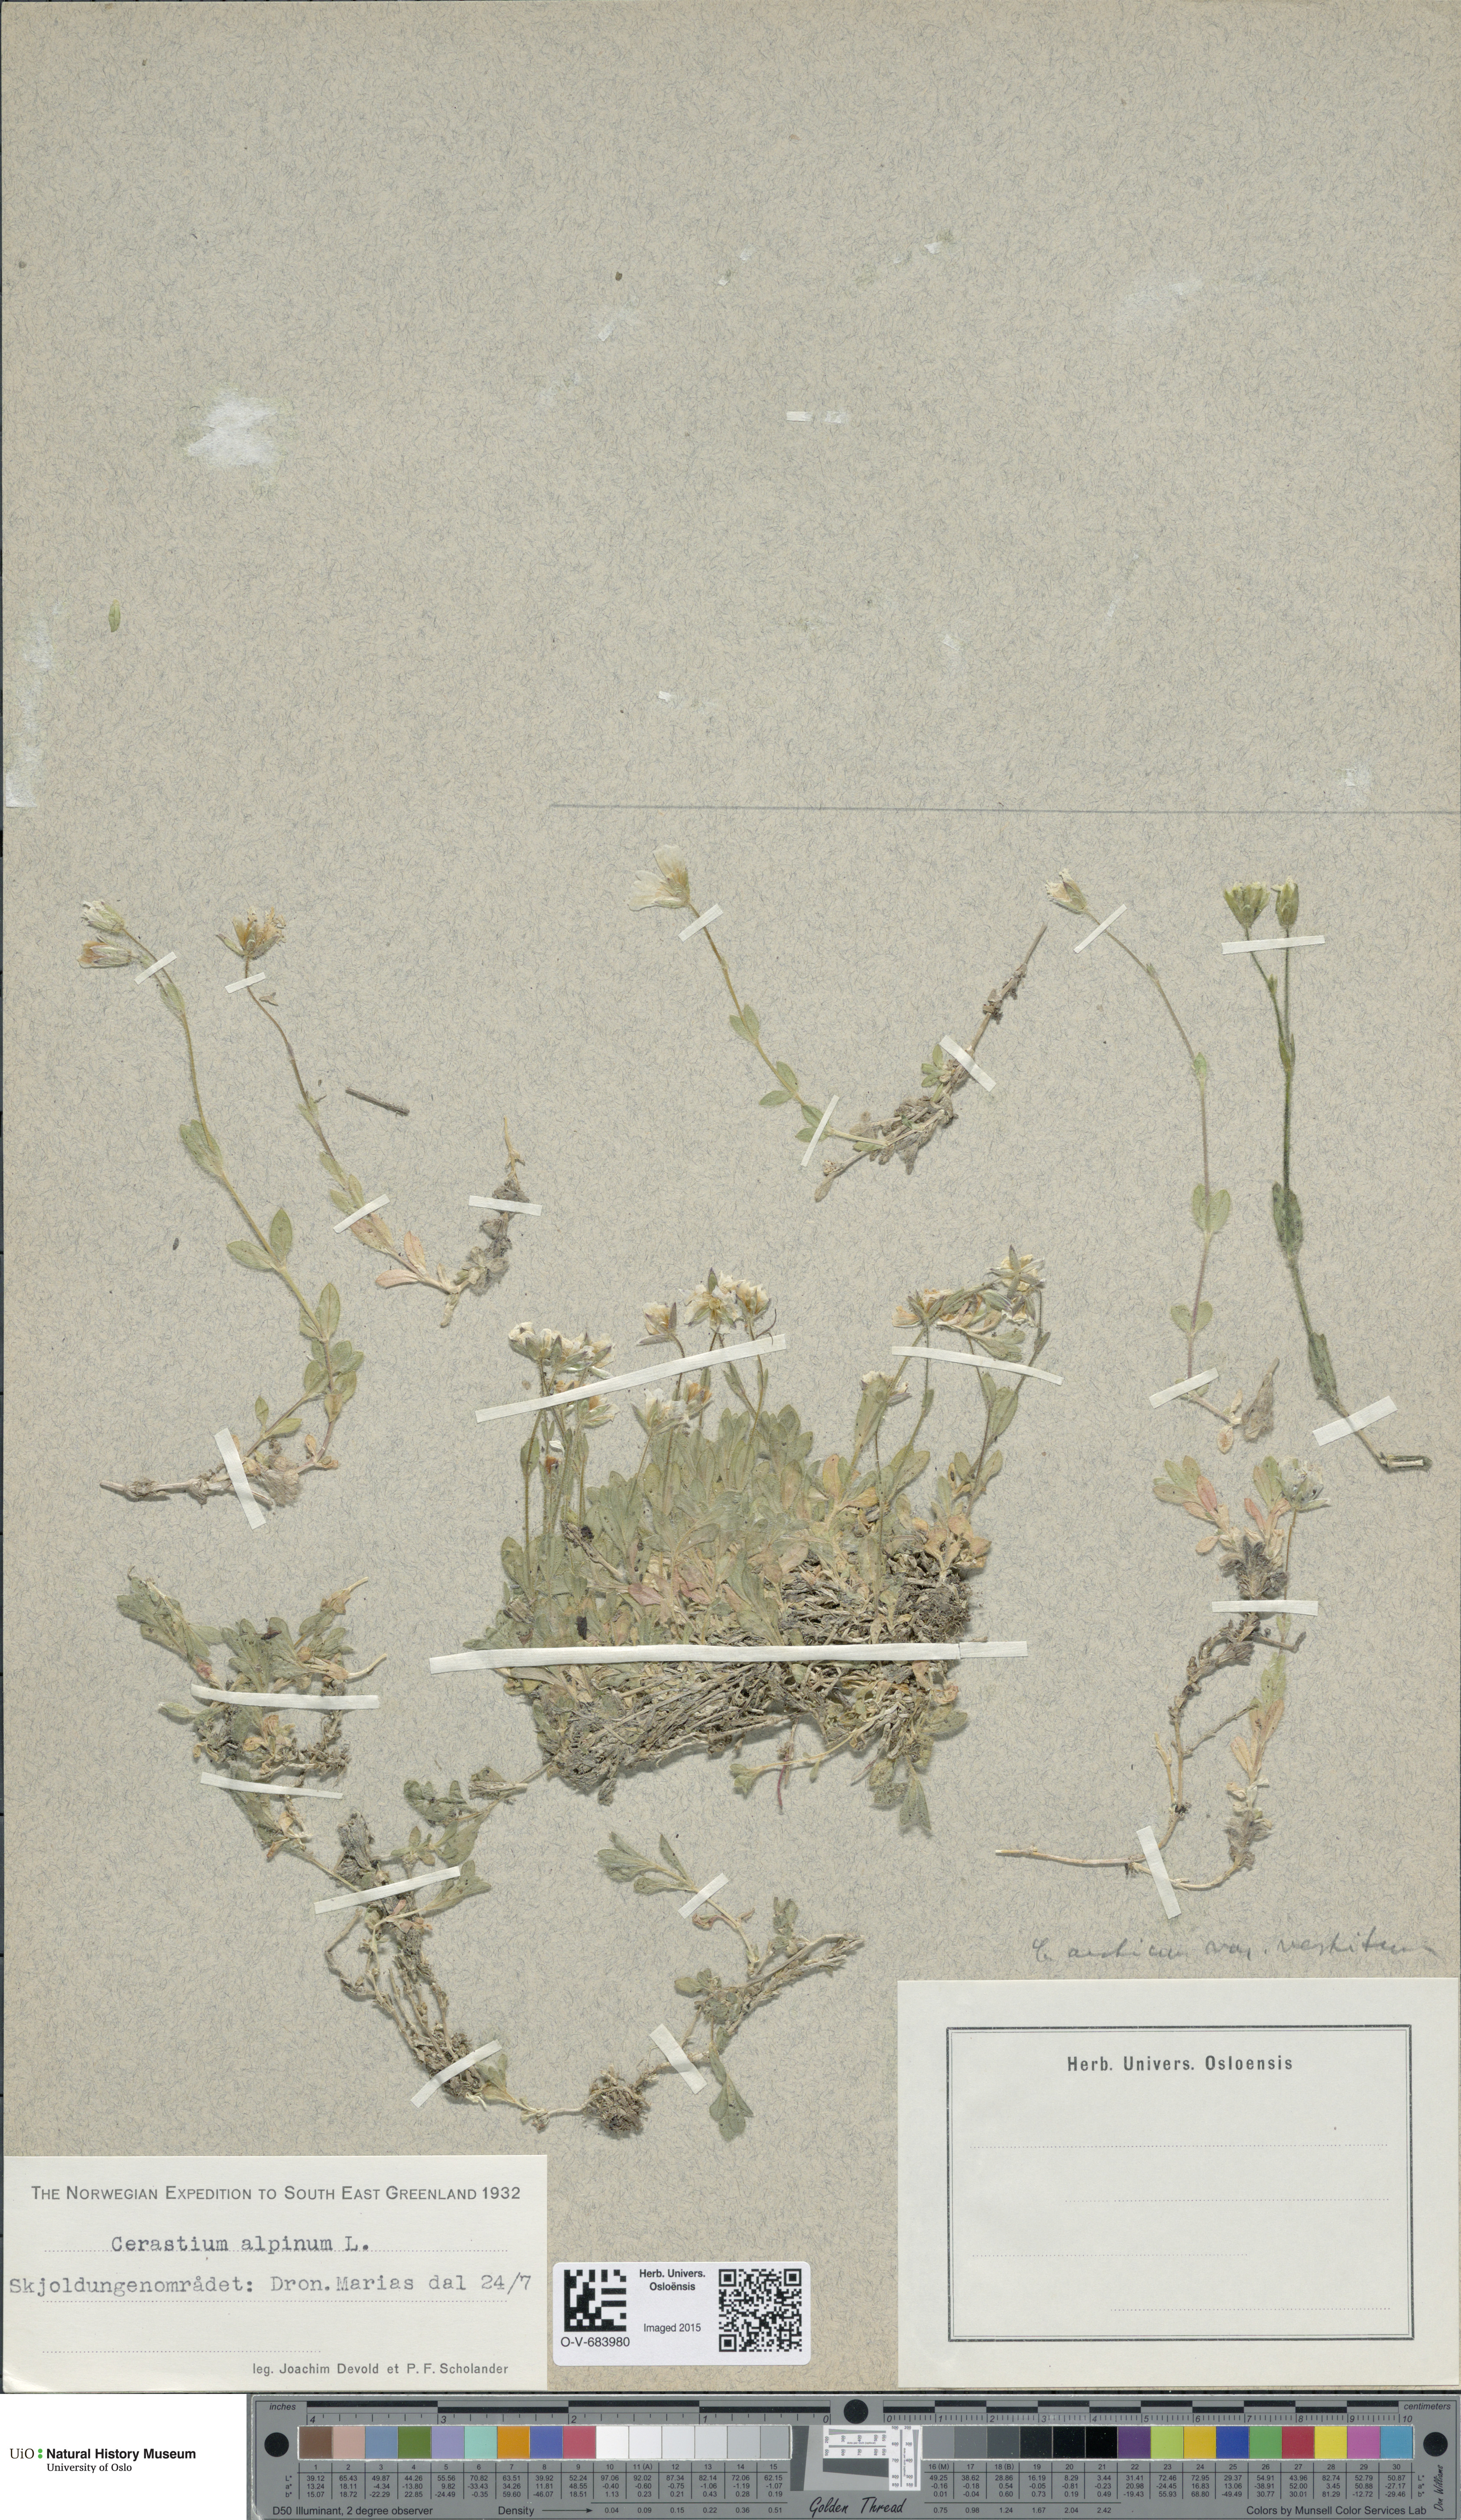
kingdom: Plantae
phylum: Tracheophyta
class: Magnoliopsida
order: Caryophyllales
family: Caryophyllaceae
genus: Cerastium
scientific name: Cerastium arcticum
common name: Arctic mouse-ear
